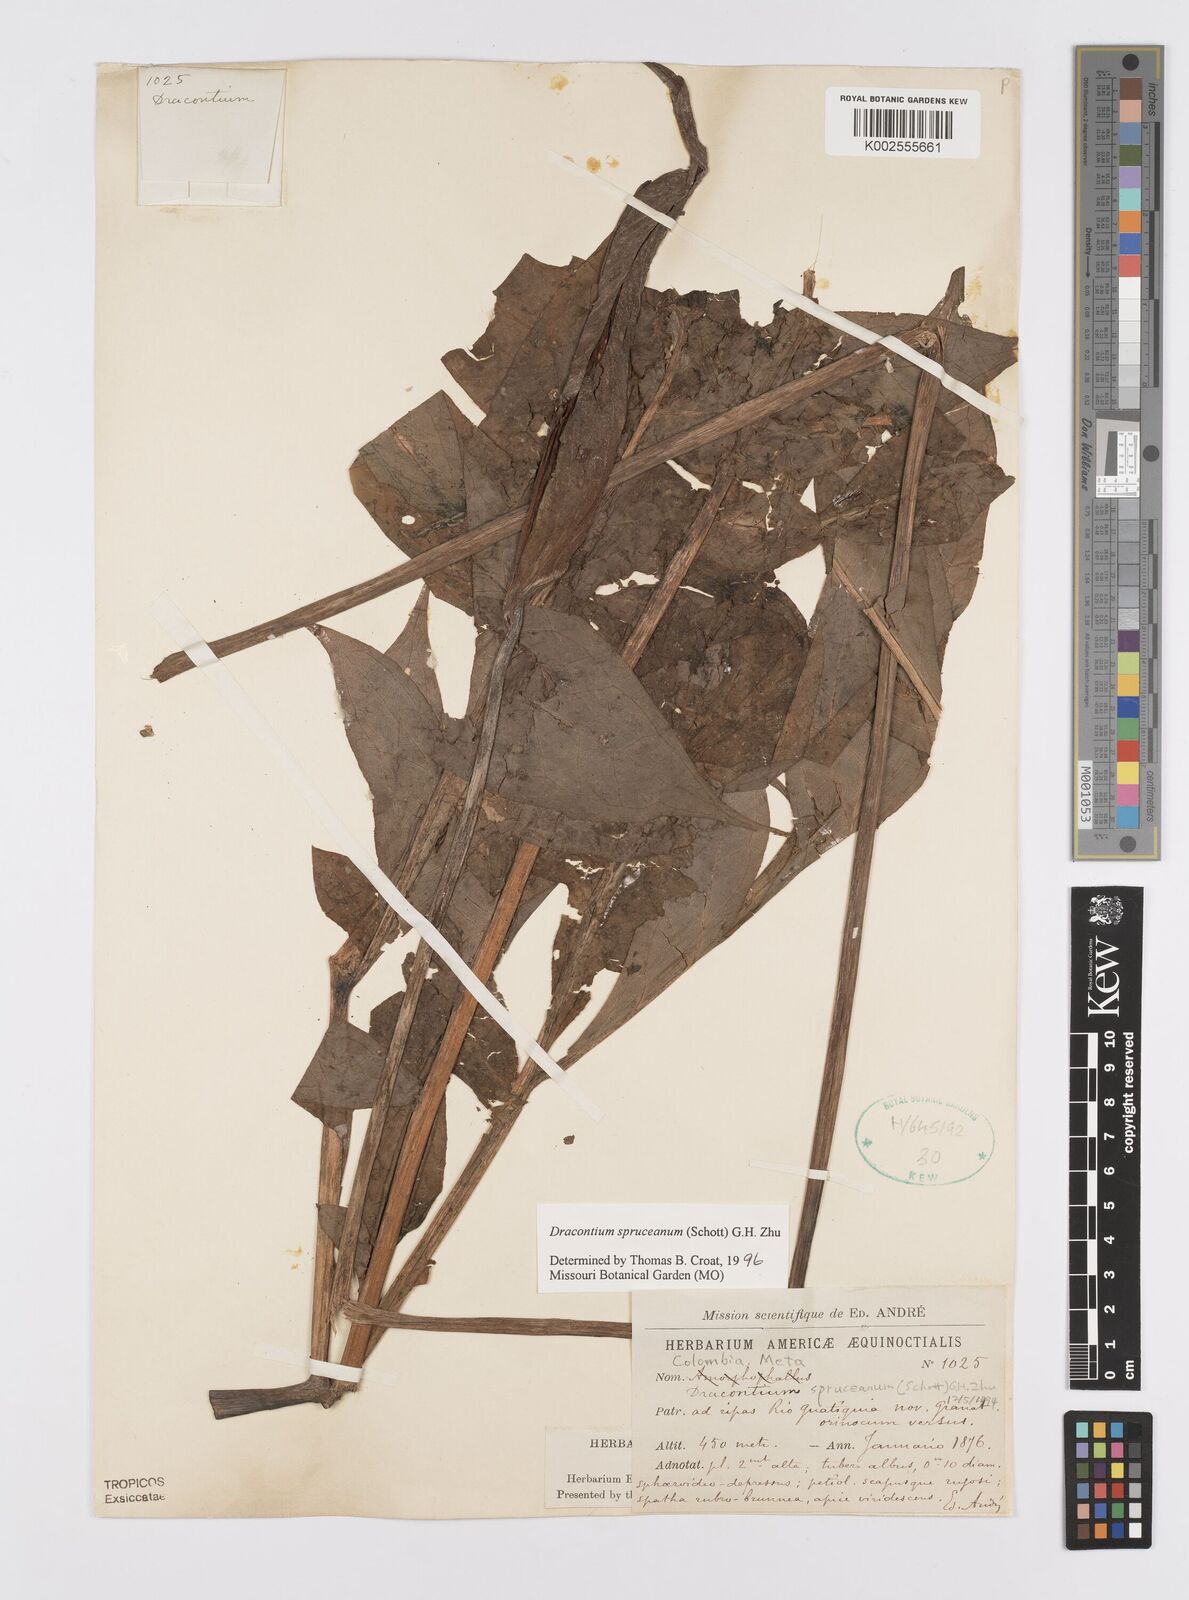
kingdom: Plantae
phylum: Tracheophyta
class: Liliopsida
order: Alismatales
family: Araceae
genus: Dracontium
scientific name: Dracontium spruceanum
